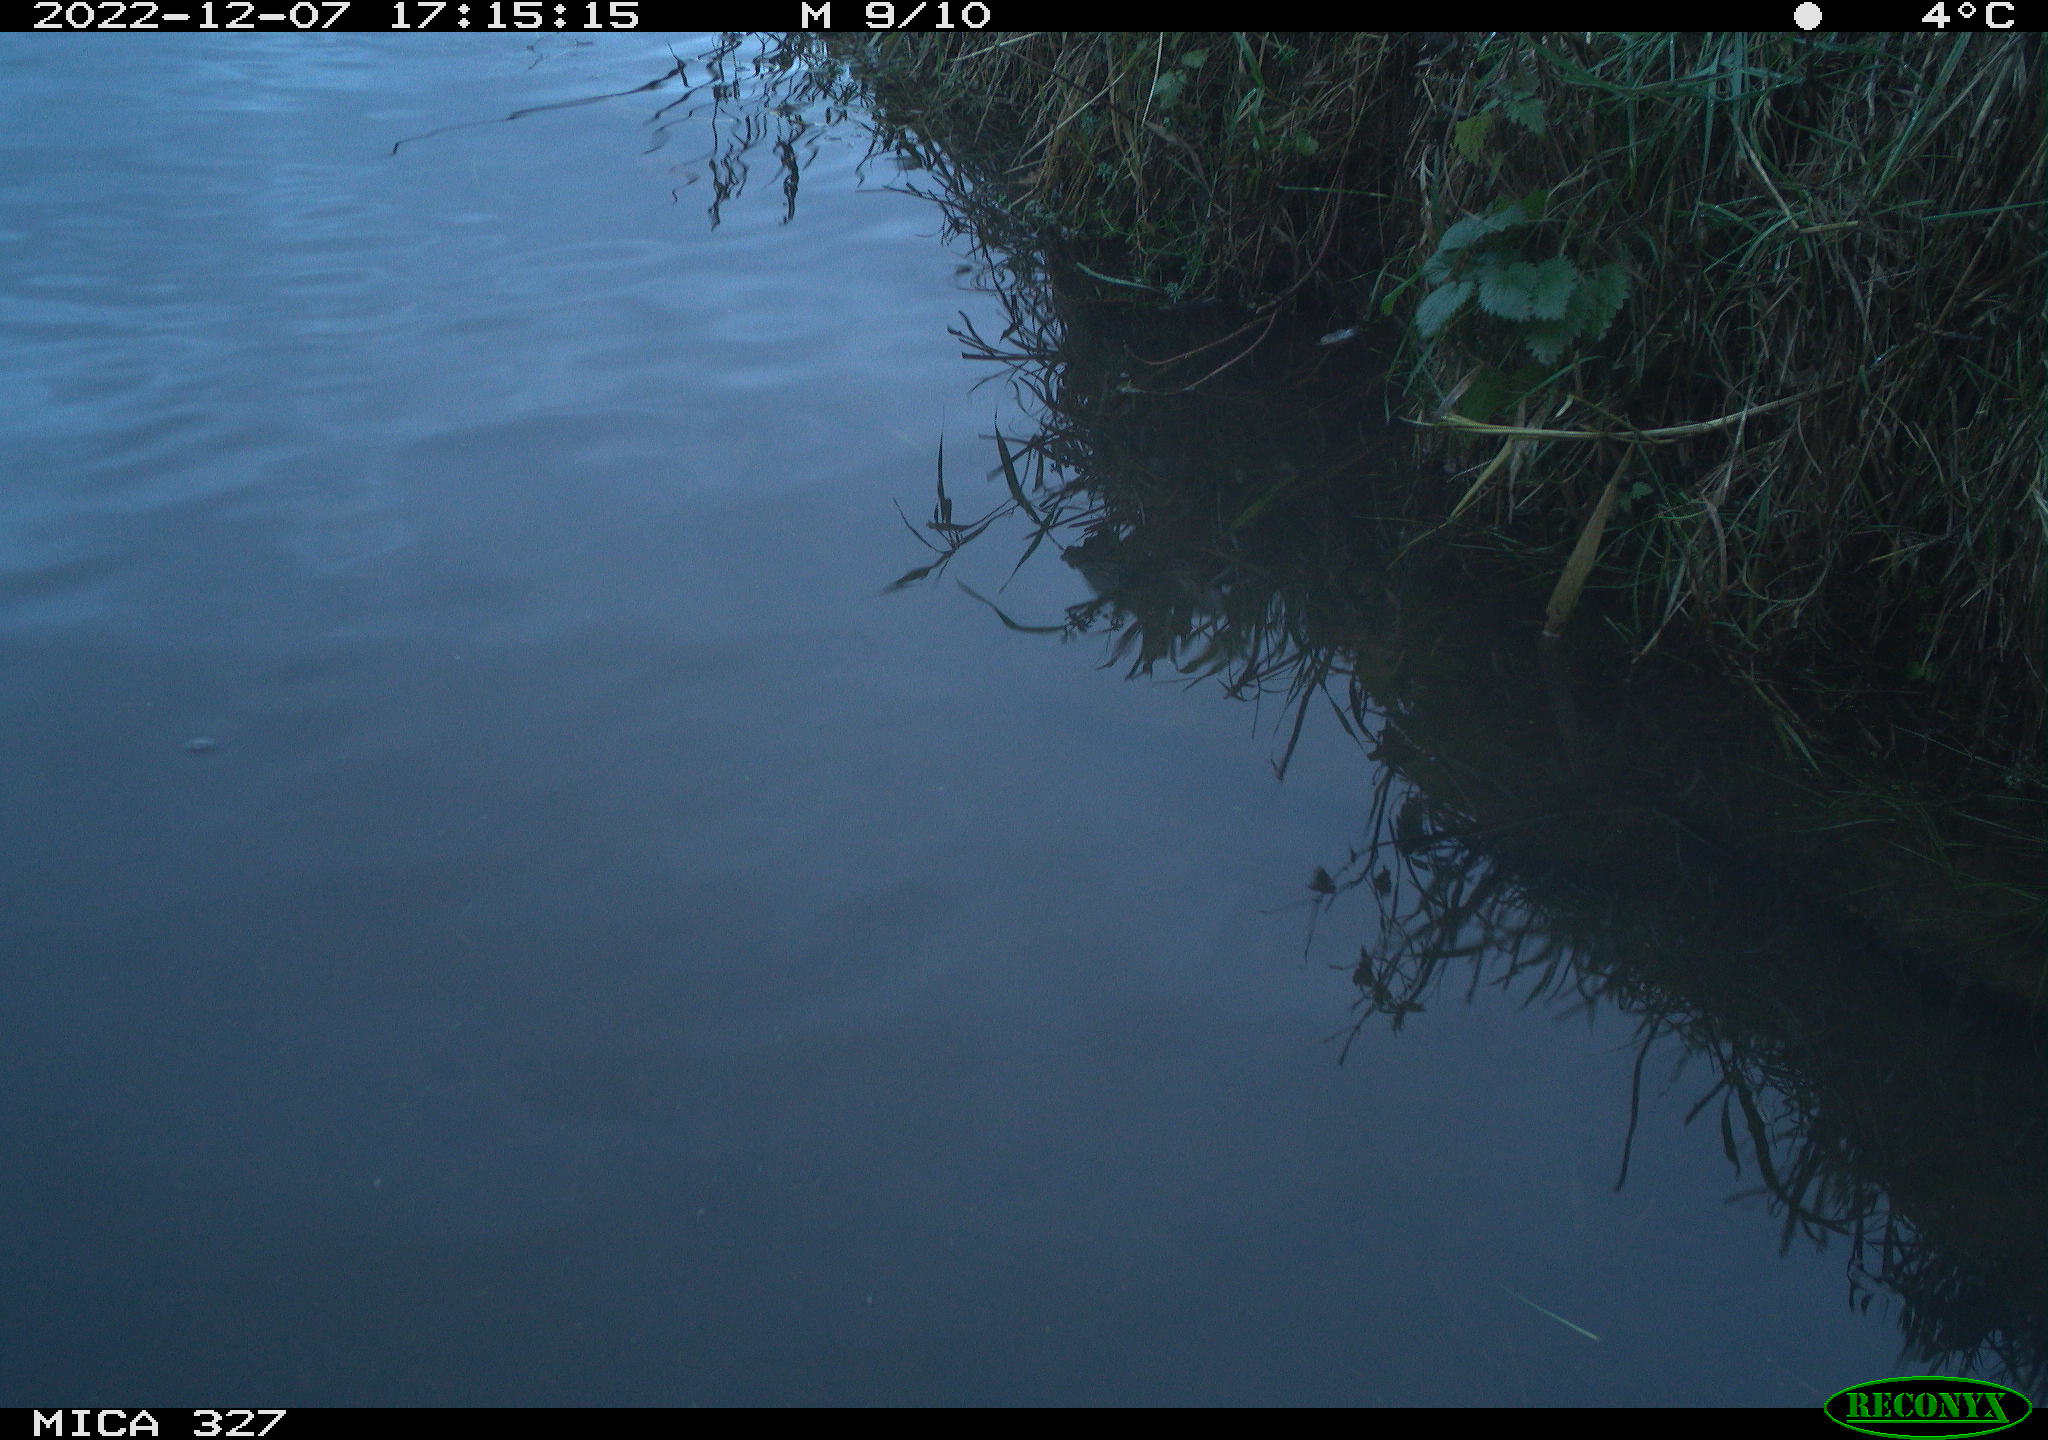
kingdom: Animalia
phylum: Chordata
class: Aves
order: Gruiformes
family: Rallidae
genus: Gallinula
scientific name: Gallinula chloropus
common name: Common moorhen
